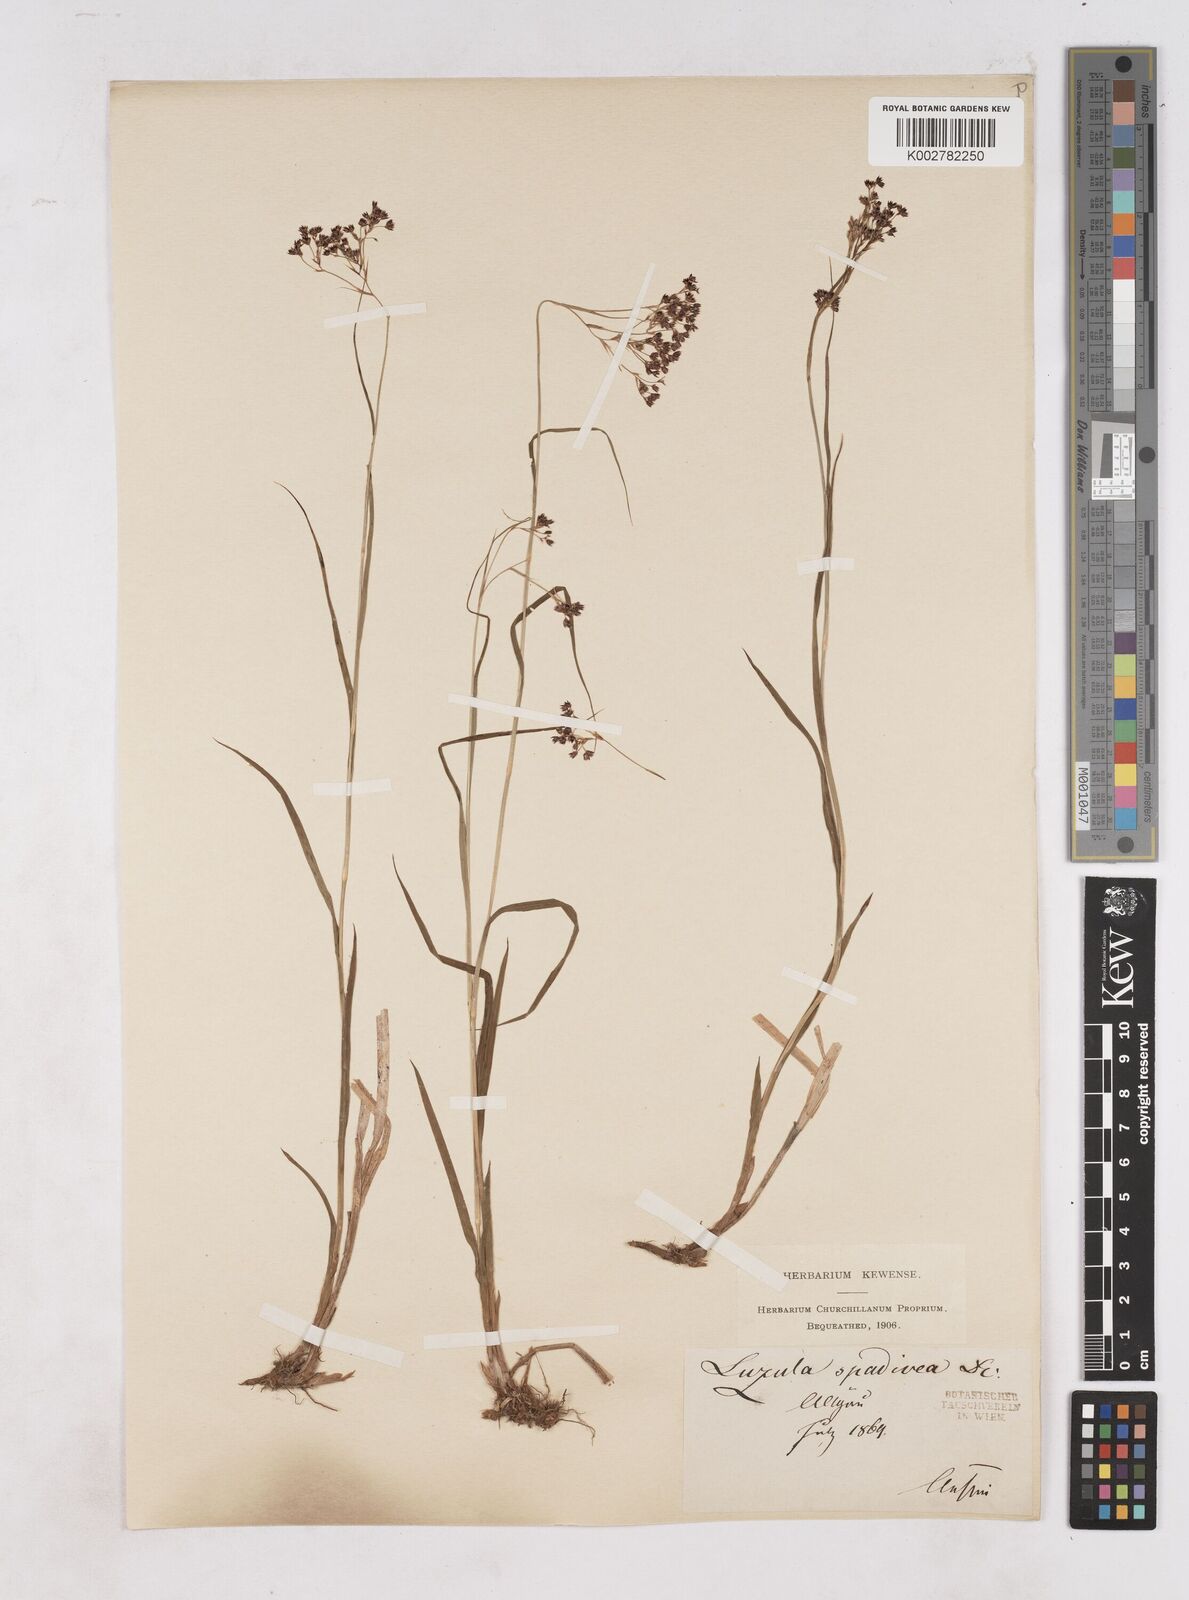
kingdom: Plantae
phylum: Tracheophyta
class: Liliopsida
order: Poales
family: Juncaceae
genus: Luzula
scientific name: Luzula alpinopilosa
